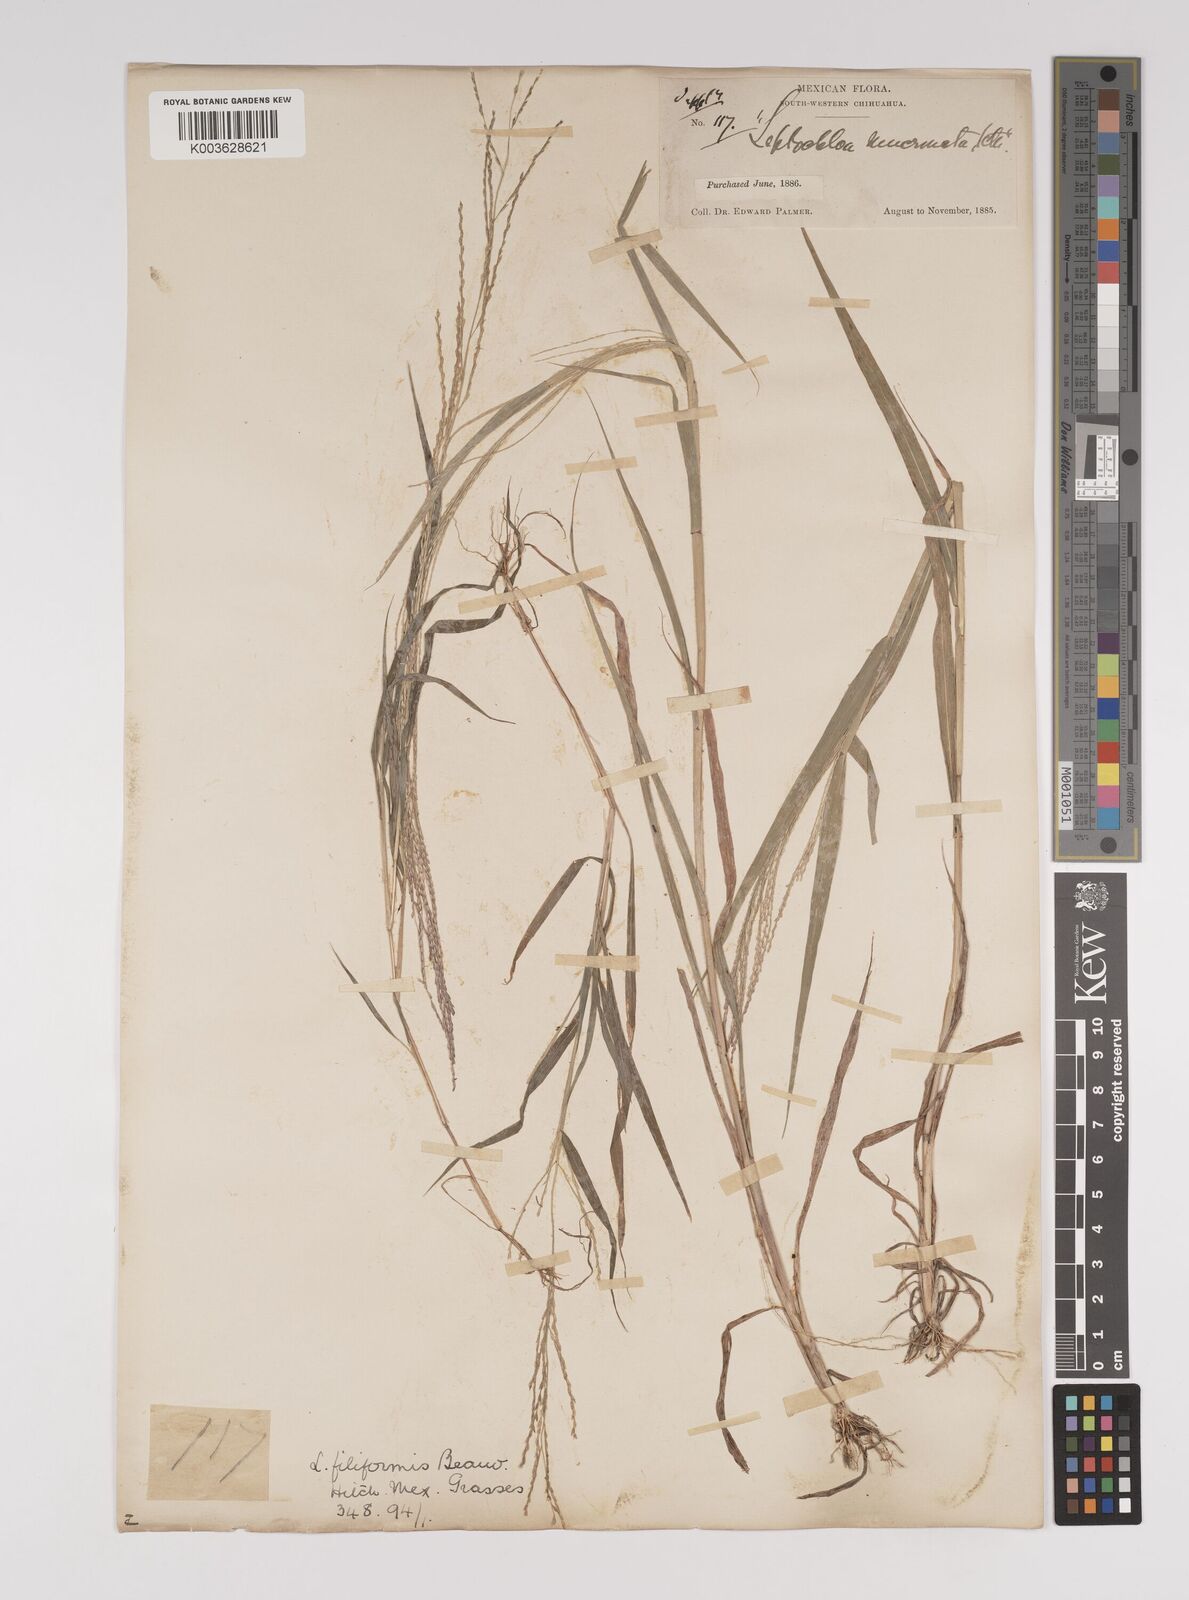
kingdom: Plantae
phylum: Tracheophyta
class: Liliopsida
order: Poales
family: Poaceae
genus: Leptochloa
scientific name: Leptochloa panicea
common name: Mucronate sprangletop
